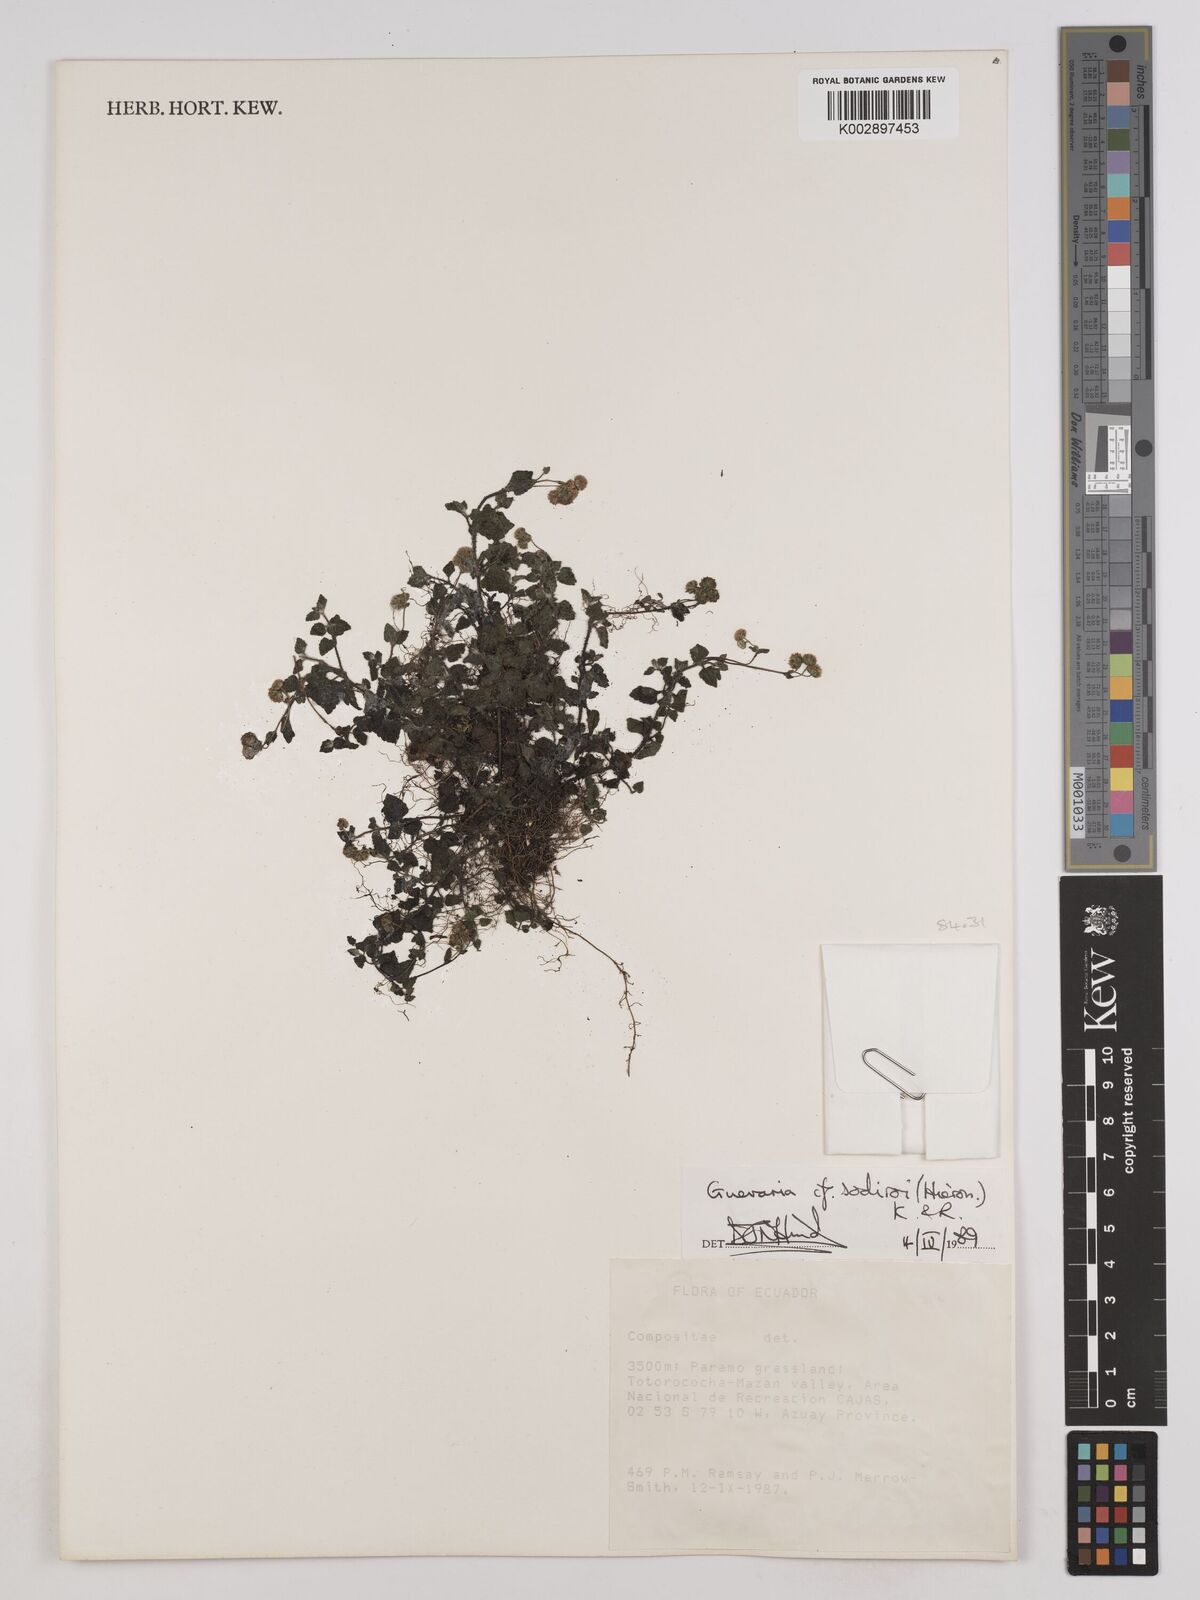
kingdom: Plantae
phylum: Tracheophyta
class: Magnoliopsida
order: Asterales
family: Asteraceae
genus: Guevaria
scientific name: Guevaria sodiroi
